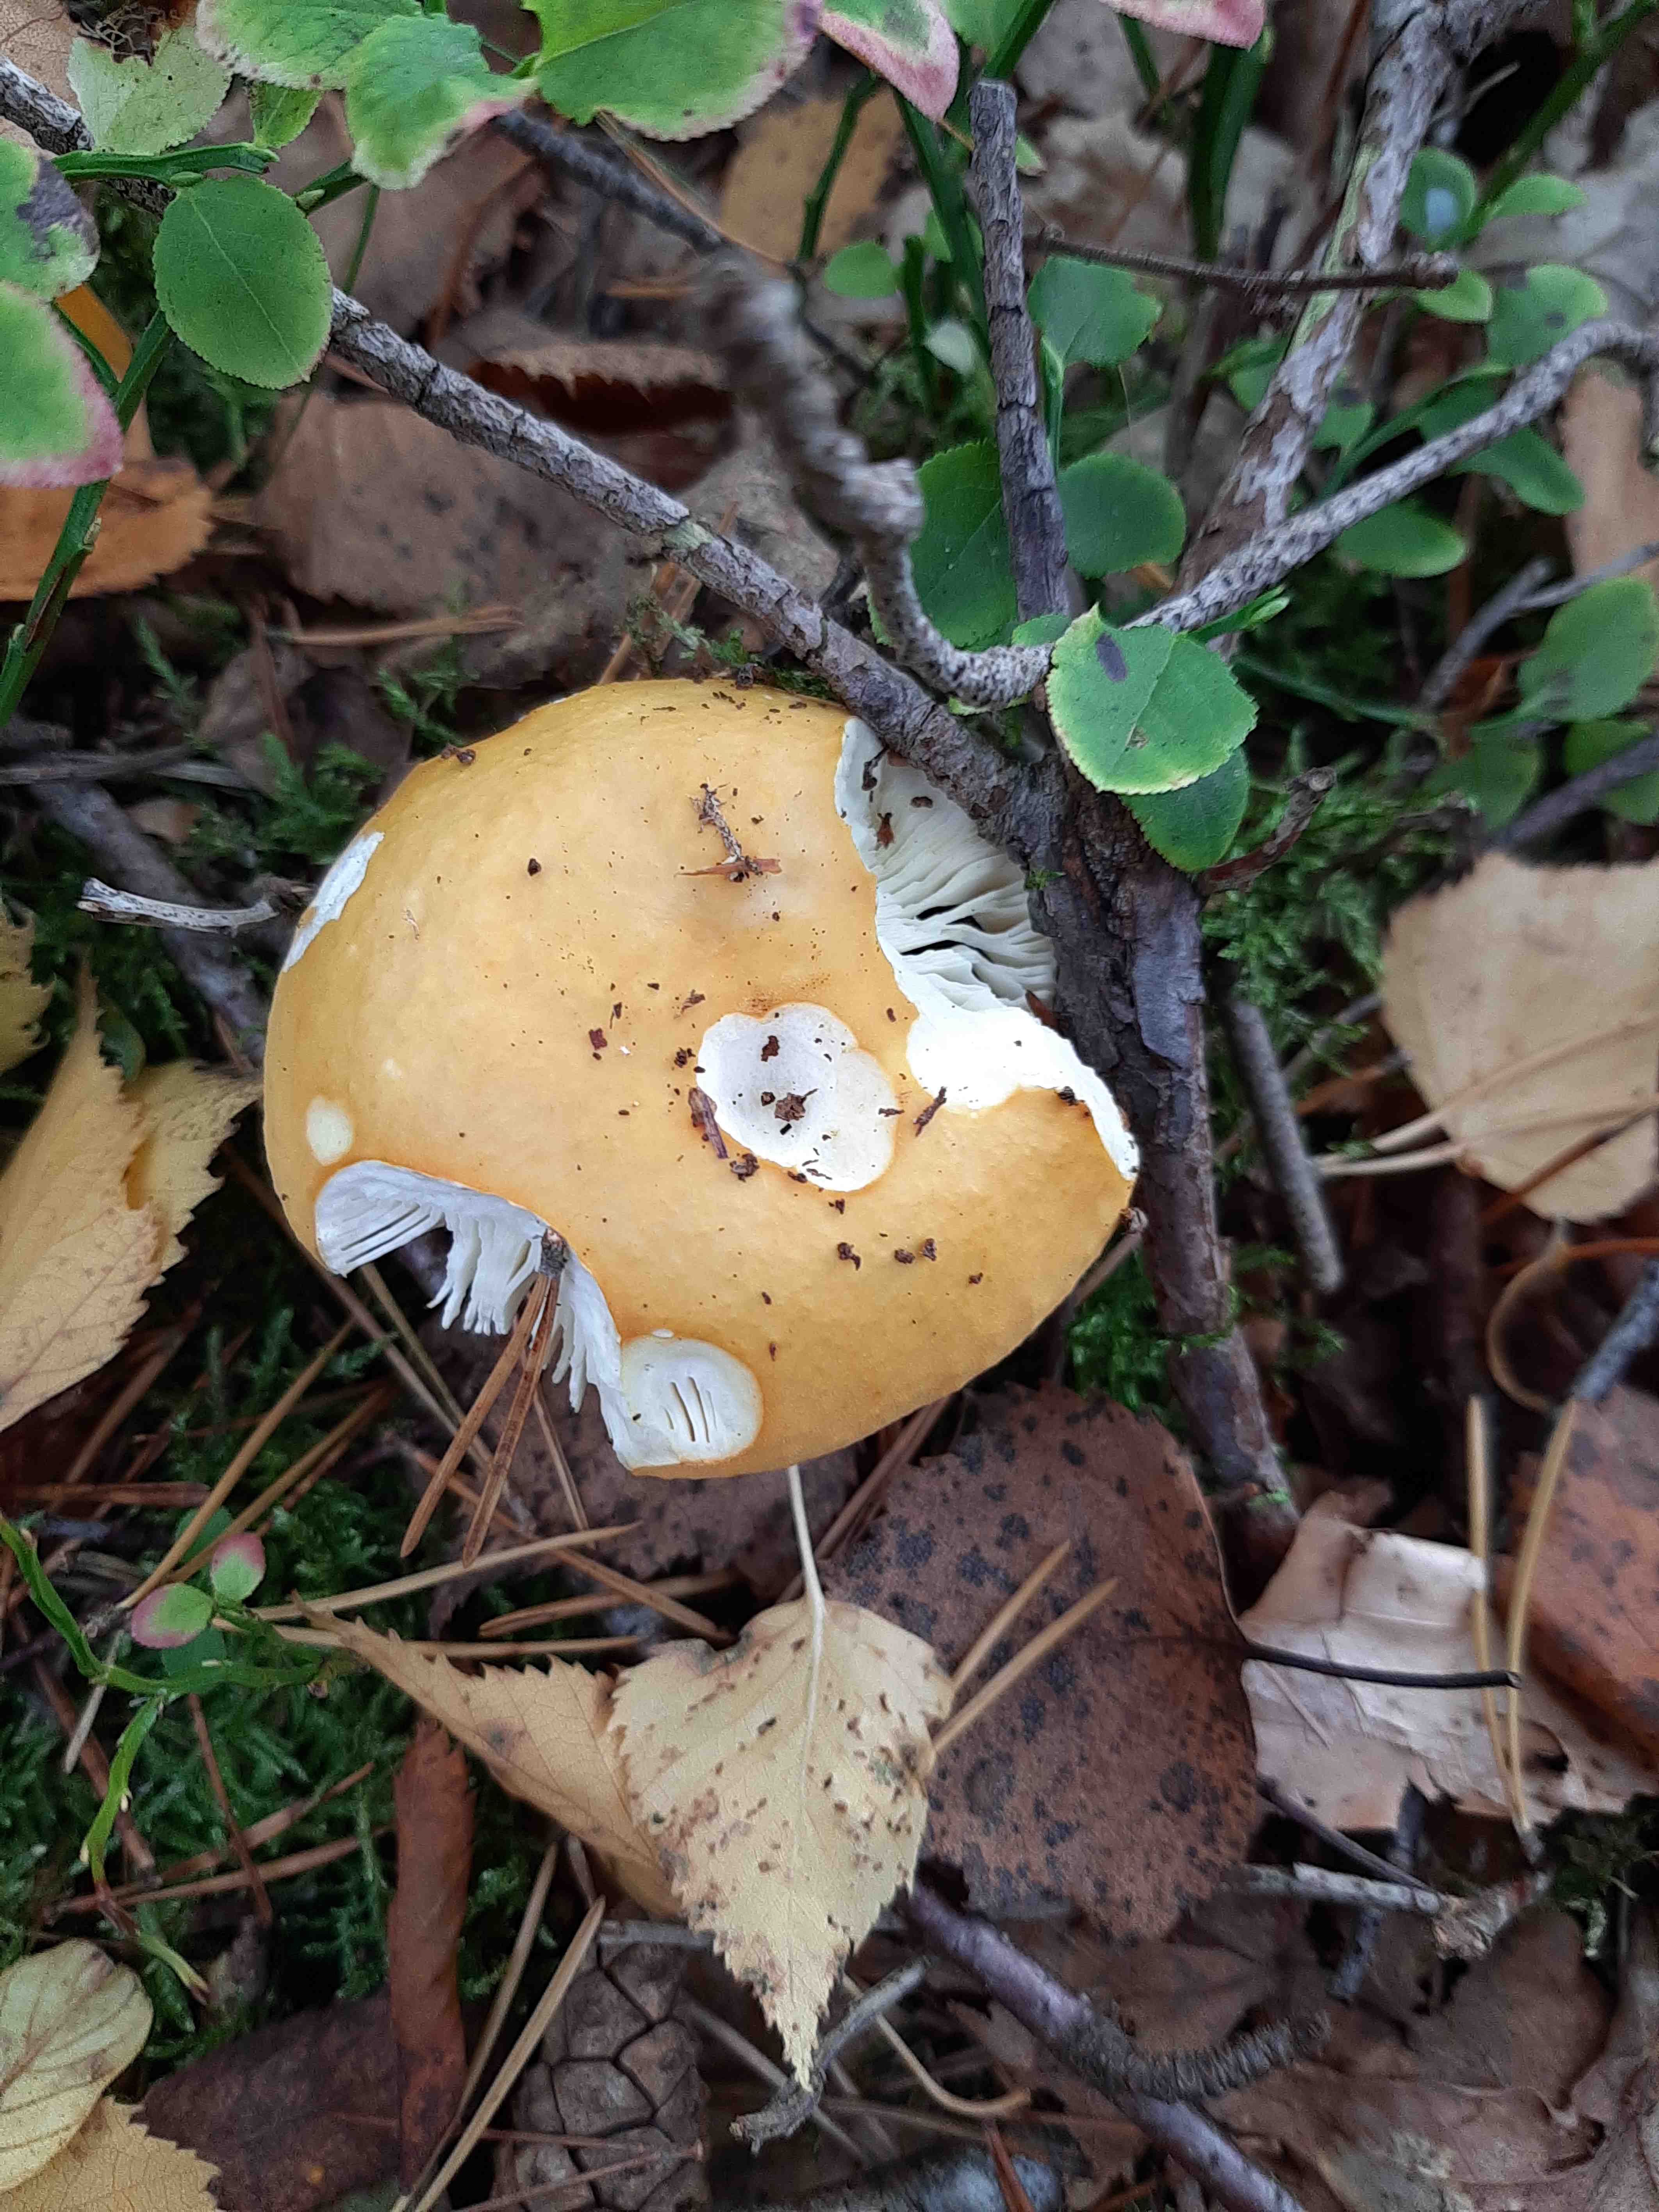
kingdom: Fungi
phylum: Basidiomycota
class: Agaricomycetes
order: Russulales
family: Russulaceae
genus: Russula
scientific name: Russula claroflava
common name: birke-skørhat
